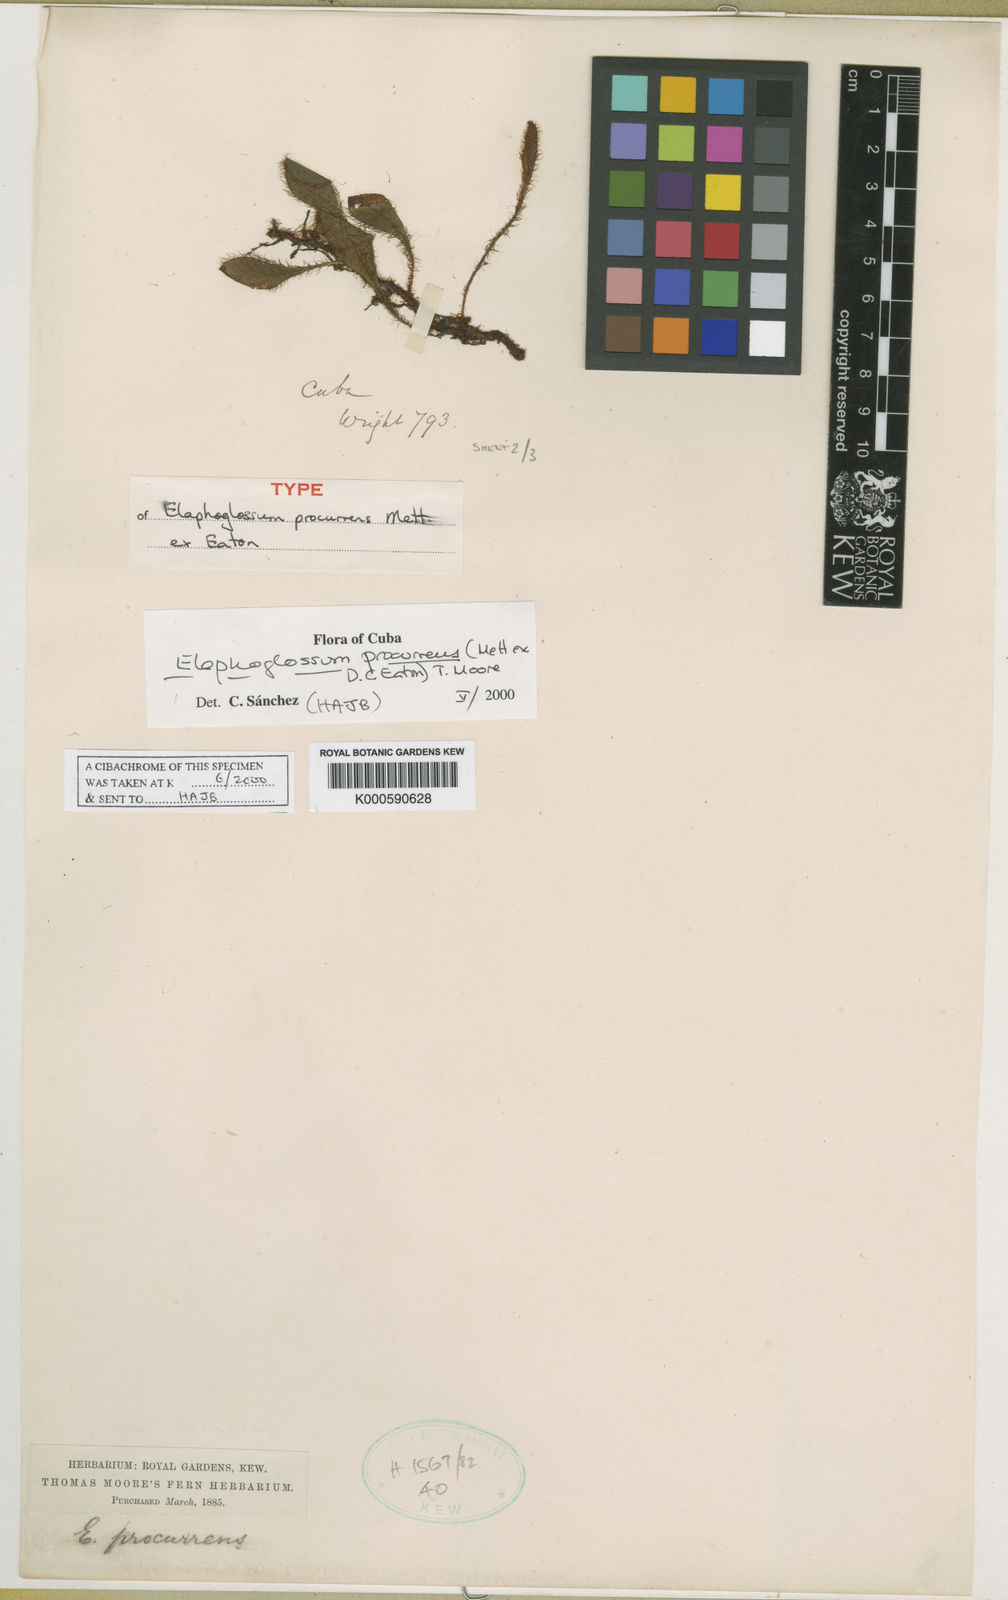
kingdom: Plantae
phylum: Tracheophyta
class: Polypodiopsida
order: Polypodiales
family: Dryopteridaceae
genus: Elaphoglossum
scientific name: Elaphoglossum procurrens
